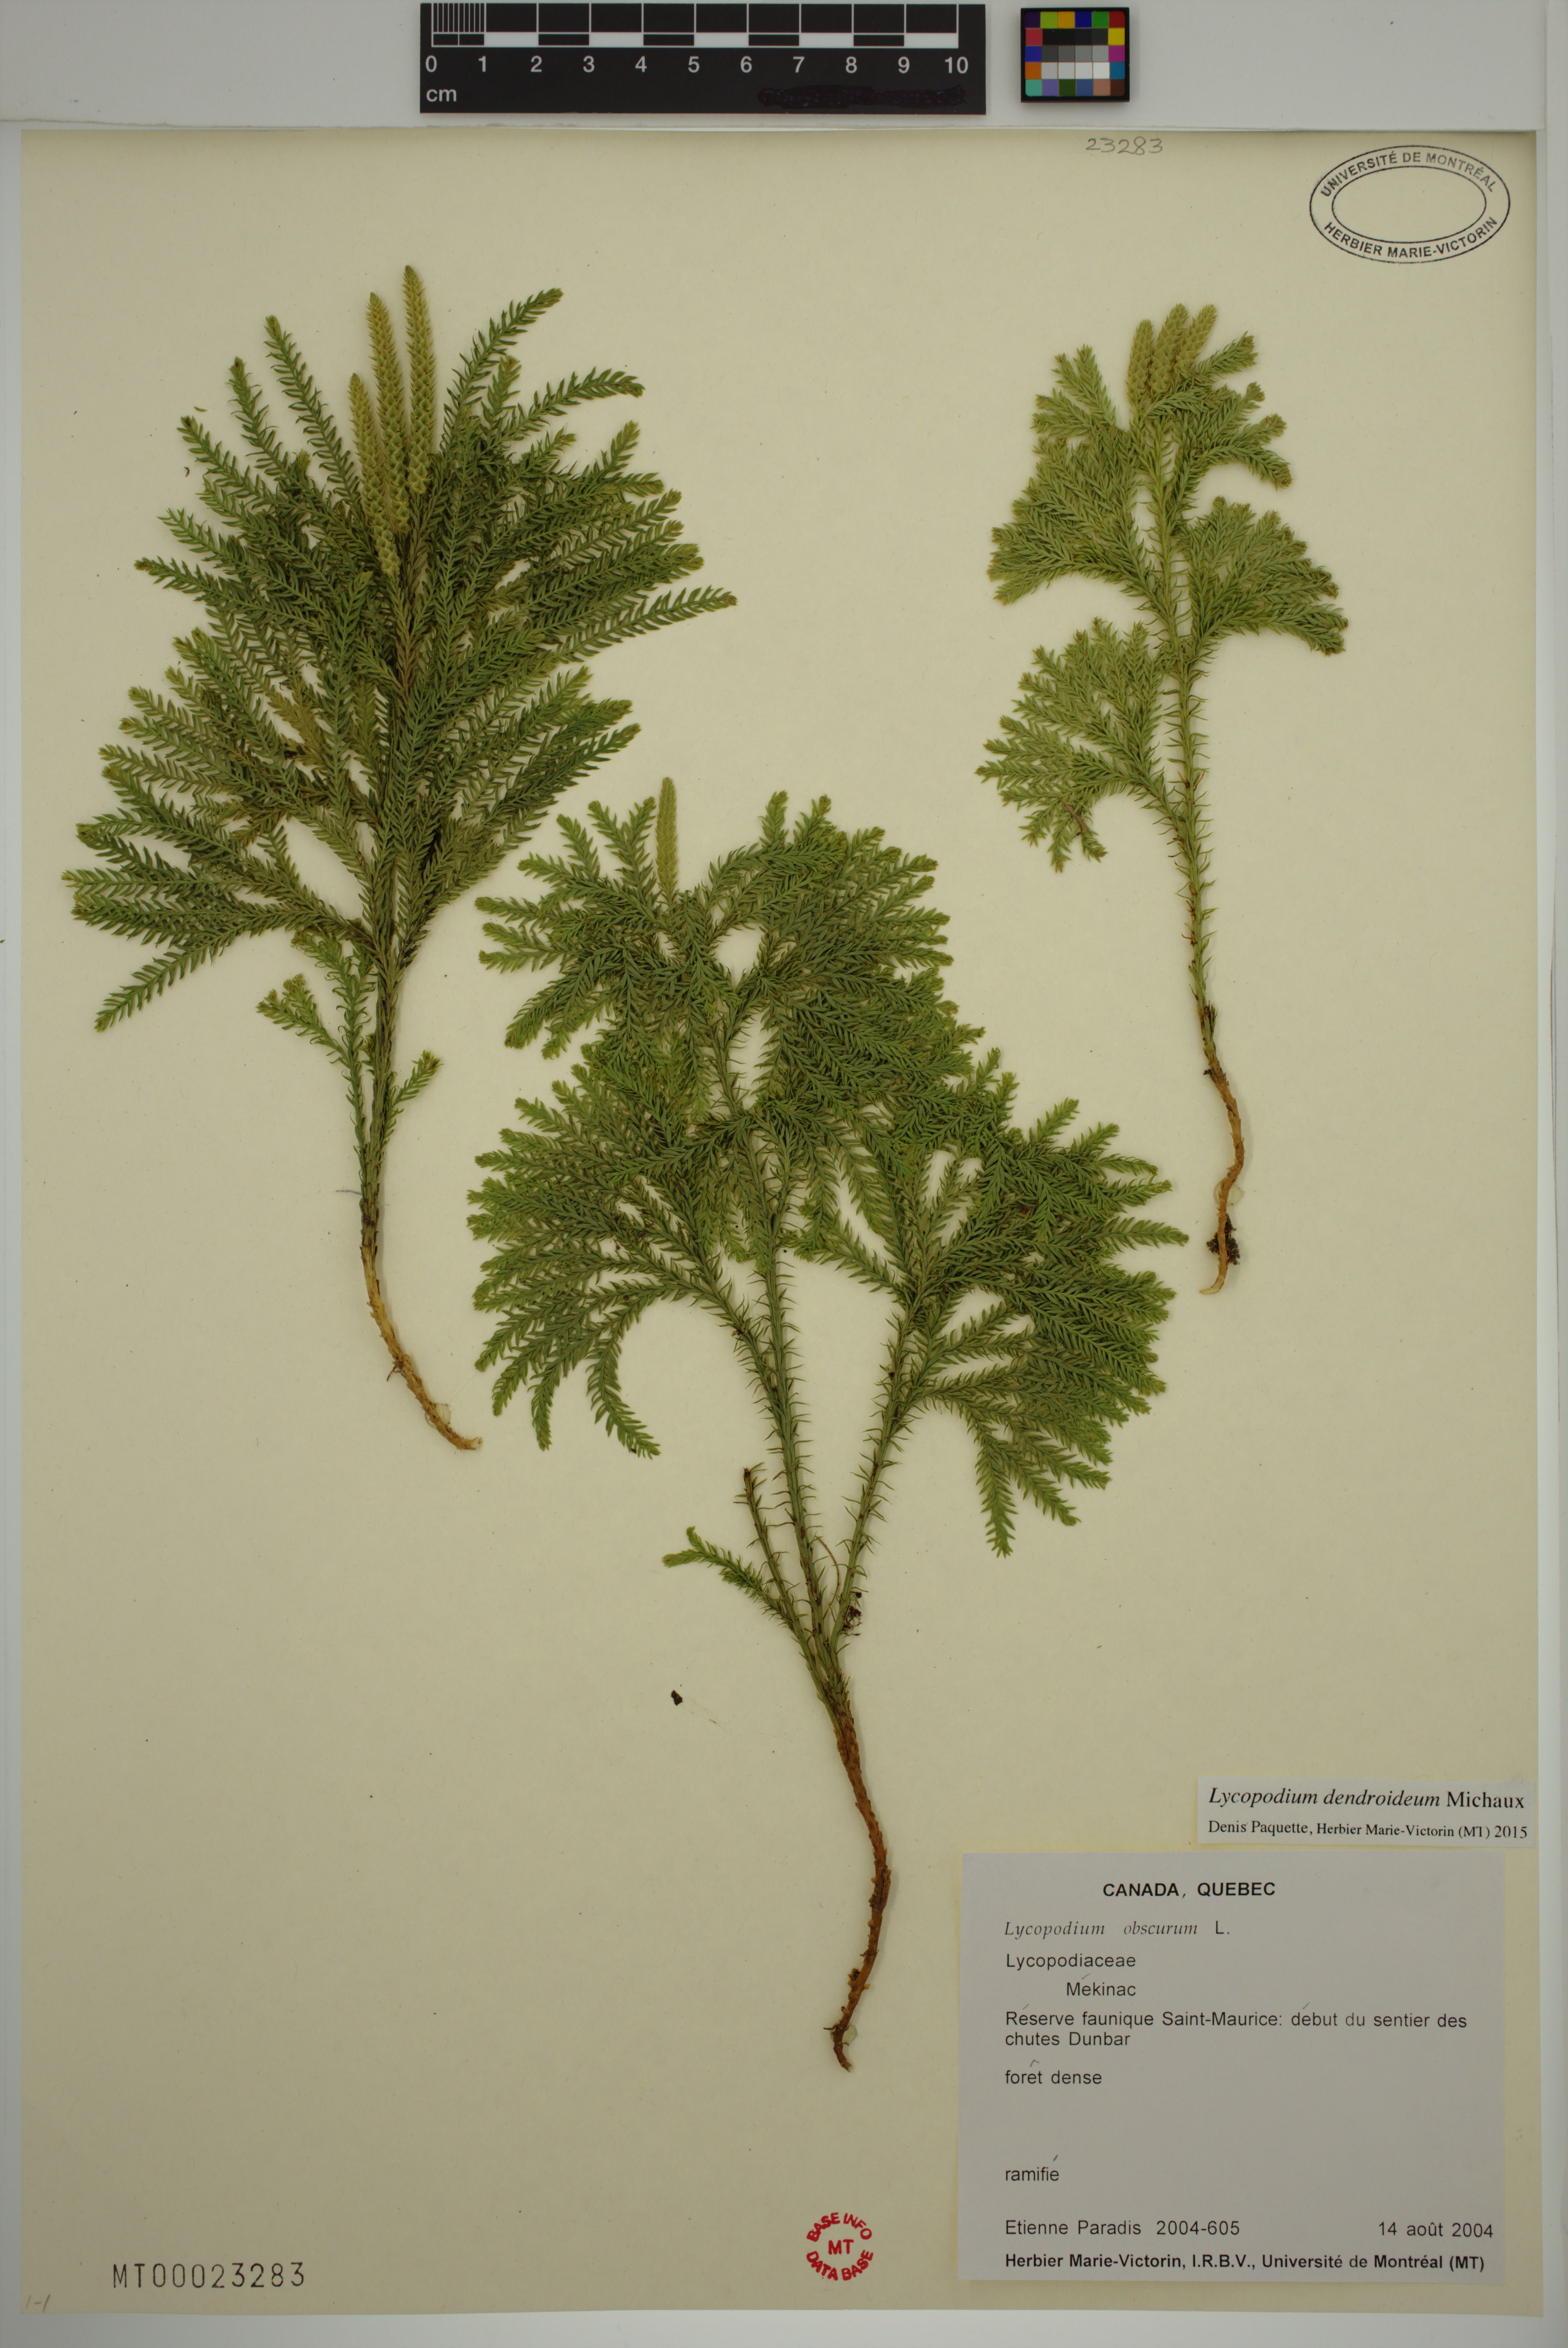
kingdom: Plantae
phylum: Tracheophyta
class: Lycopodiopsida
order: Lycopodiales
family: Lycopodiaceae
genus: Dendrolycopodium
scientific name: Dendrolycopodium dendroideum
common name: Northern tree-clubmoss
